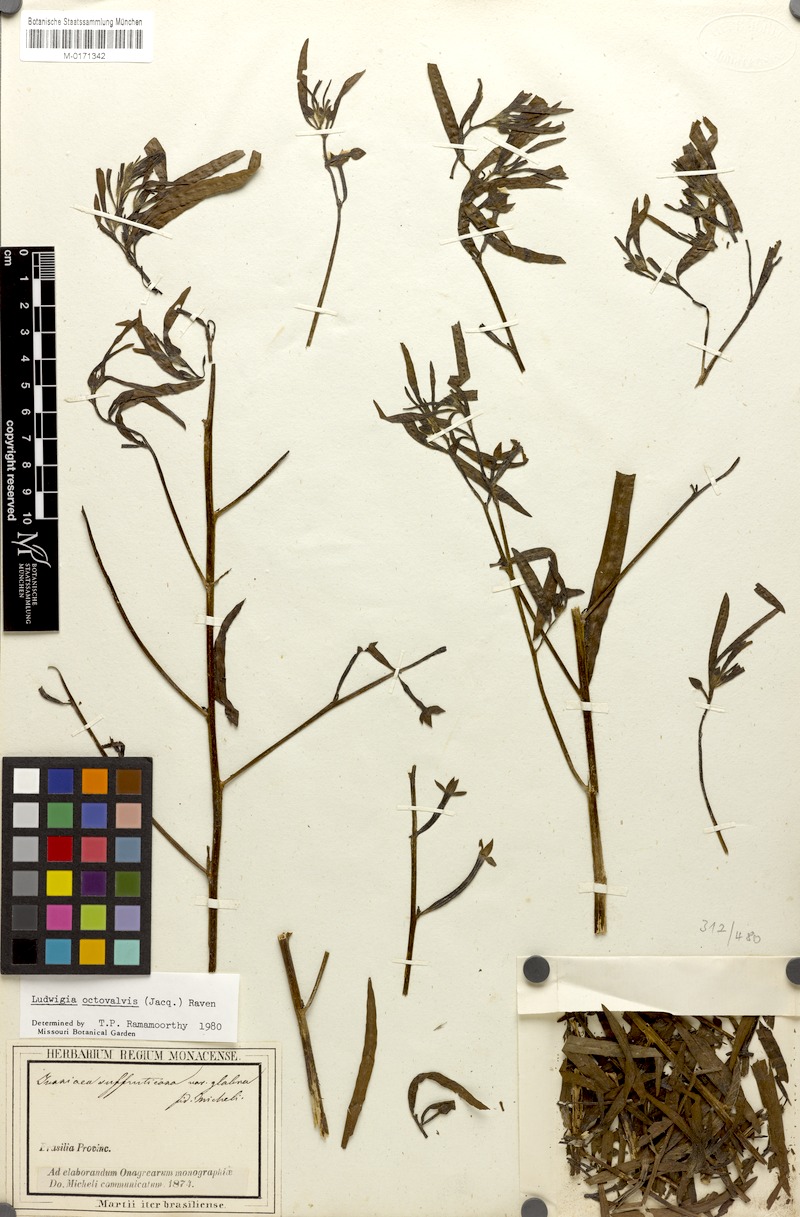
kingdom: Plantae
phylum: Tracheophyta
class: Magnoliopsida
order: Myrtales
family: Onagraceae
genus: Ludwigia
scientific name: Ludwigia octovalvis
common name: Water-primrose
